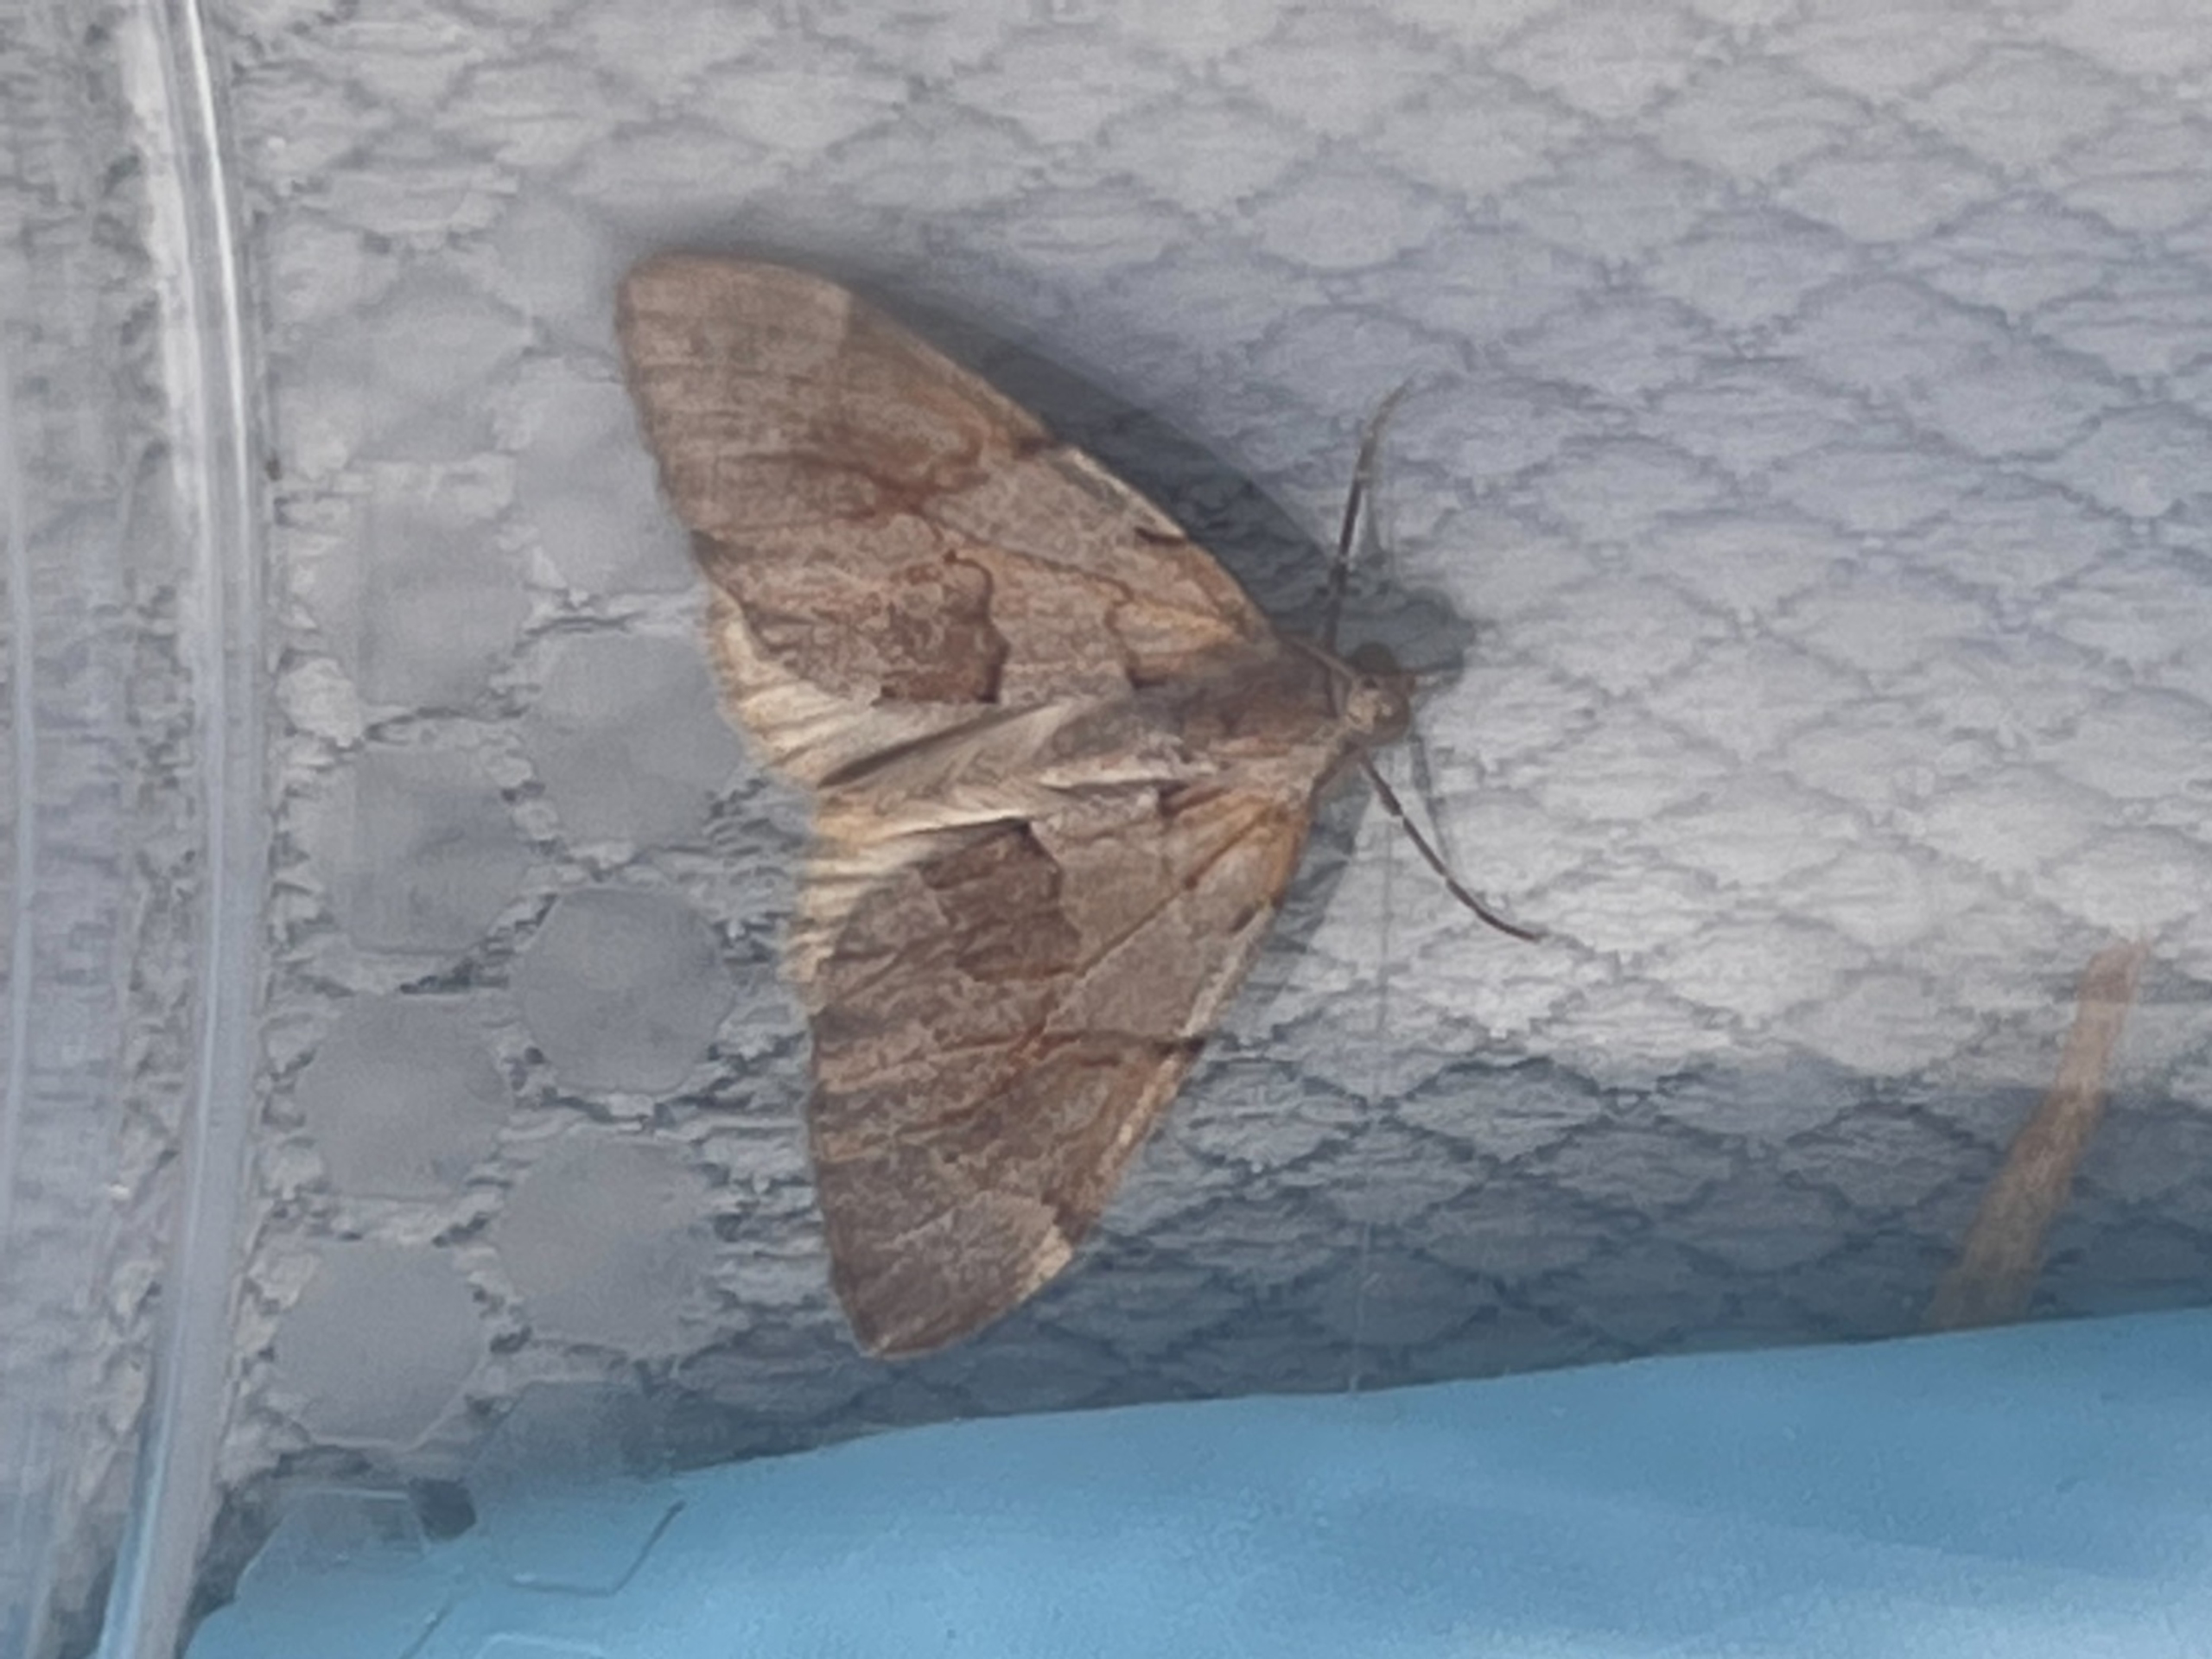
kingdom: Animalia
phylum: Arthropoda
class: Insecta
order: Lepidoptera
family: Geometridae
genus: Pennithera
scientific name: Pennithera firmata
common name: Rød fyrremåler
